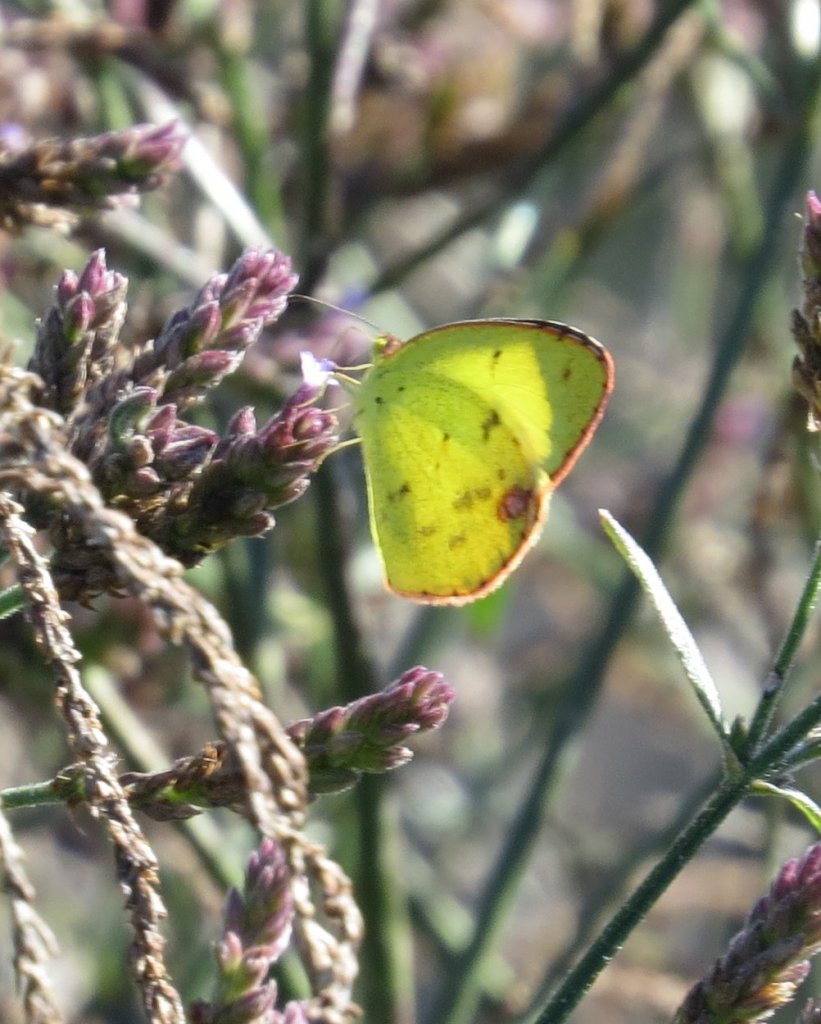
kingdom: Animalia
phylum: Arthropoda
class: Insecta
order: Lepidoptera
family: Pieridae
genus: Pyrisitia
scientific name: Pyrisitia lisa
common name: Little Yellow
